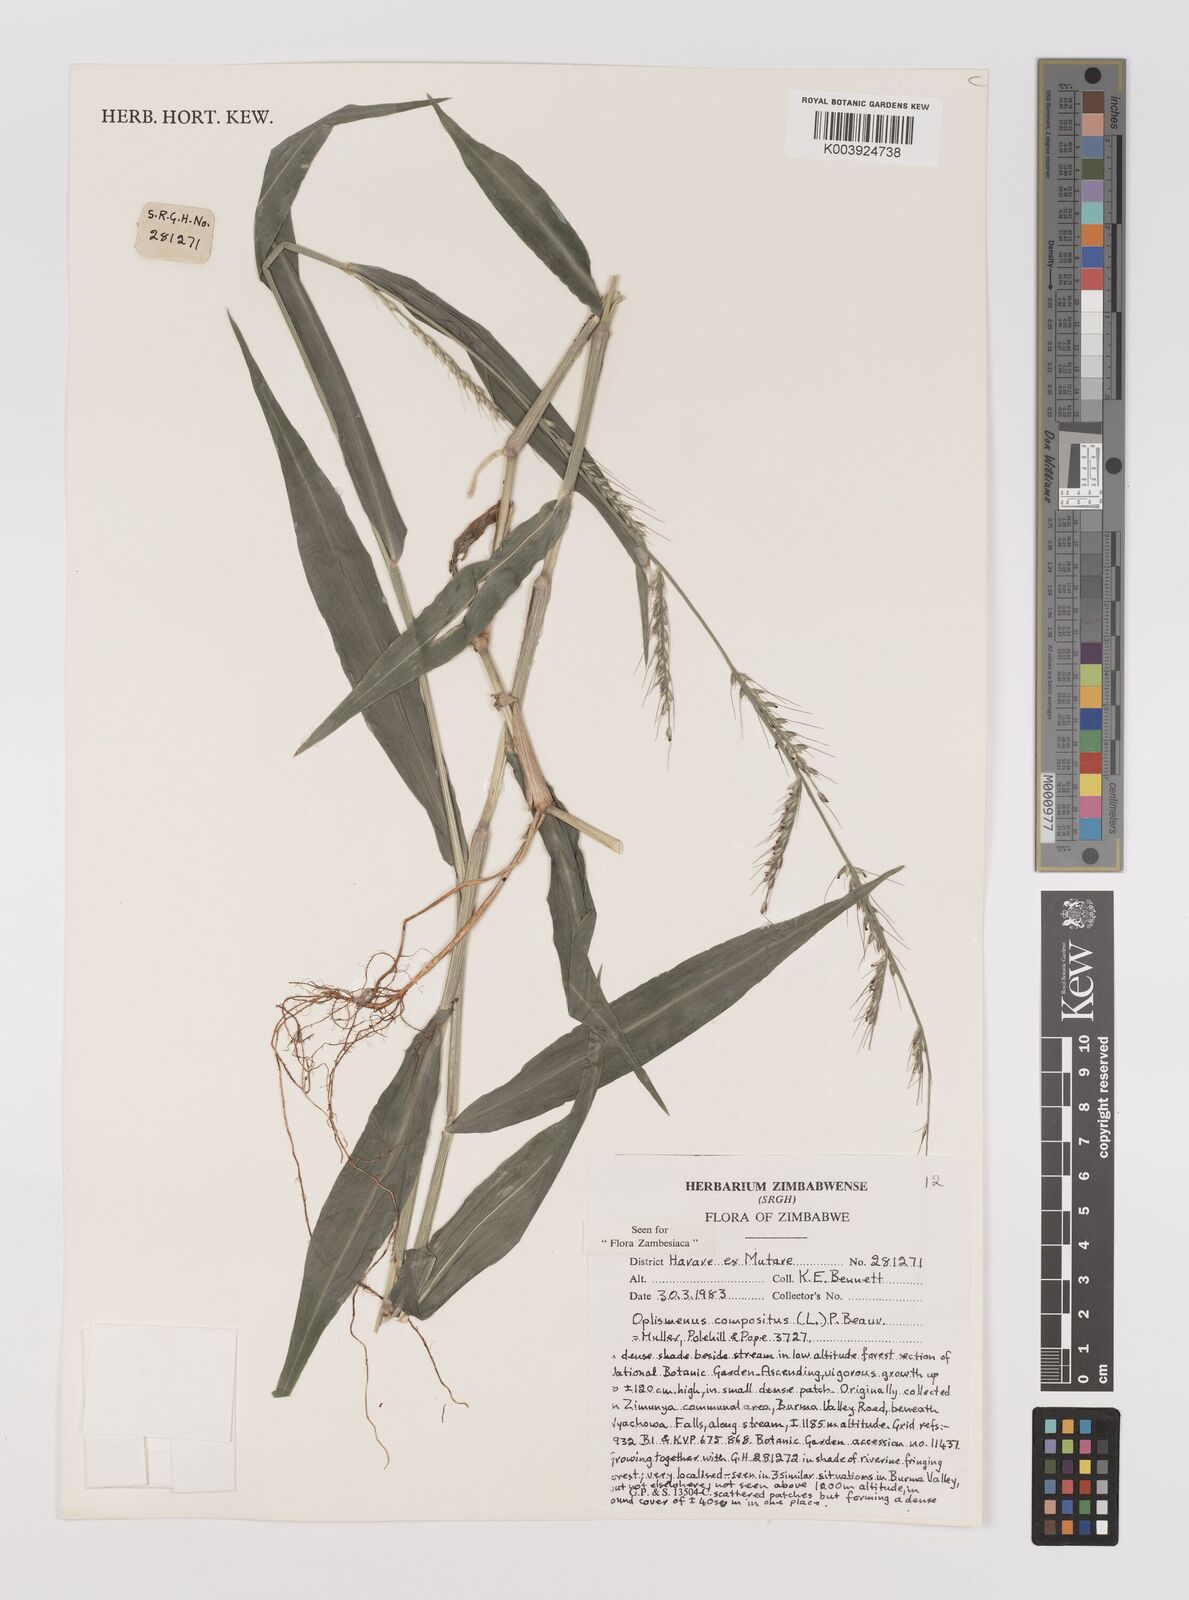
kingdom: Plantae
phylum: Tracheophyta
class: Liliopsida
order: Poales
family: Poaceae
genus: Oplismenus
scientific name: Oplismenus compositus
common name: Running mountain grass
